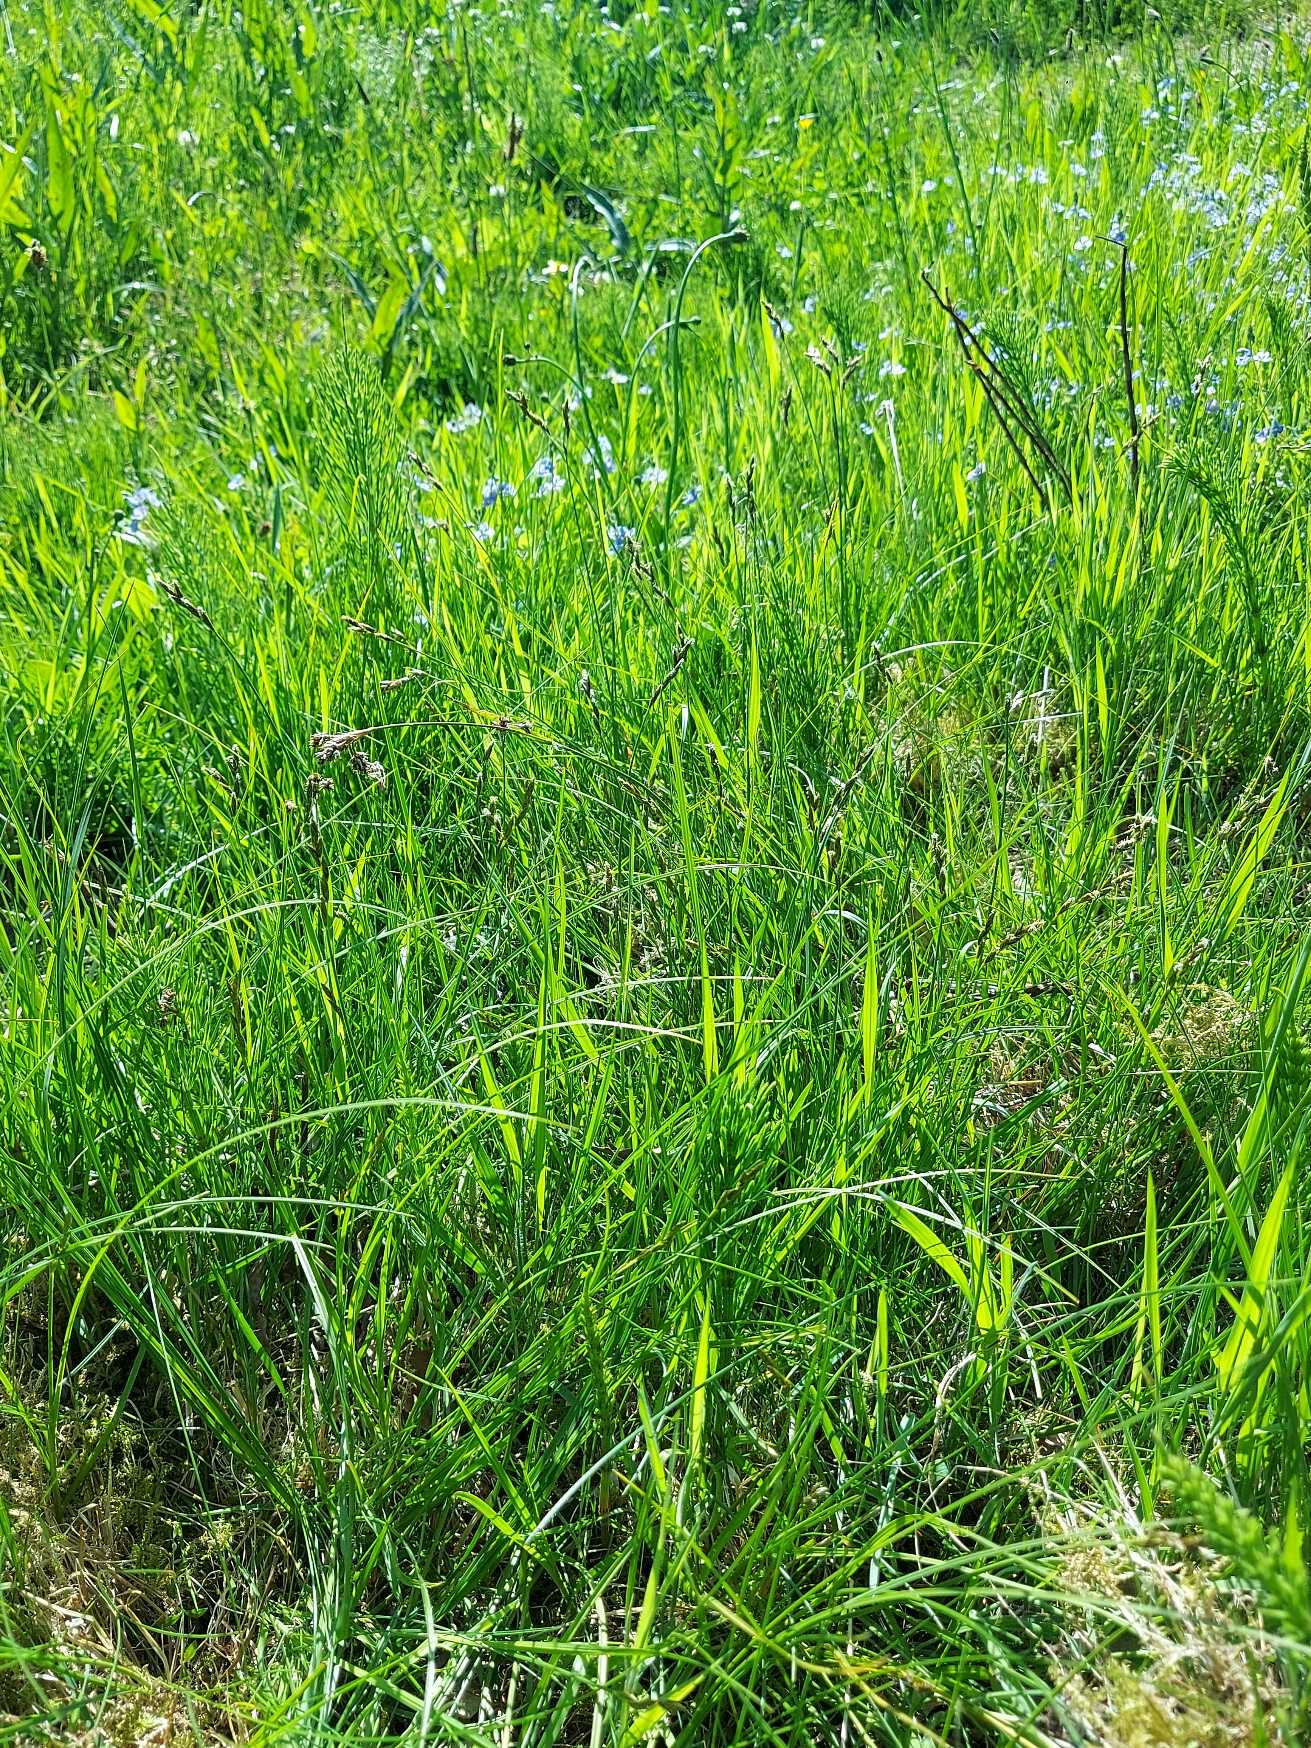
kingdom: Plantae
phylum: Tracheophyta
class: Liliopsida
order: Poales
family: Cyperaceae
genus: Carex
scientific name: Carex leporina
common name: Hare-star
